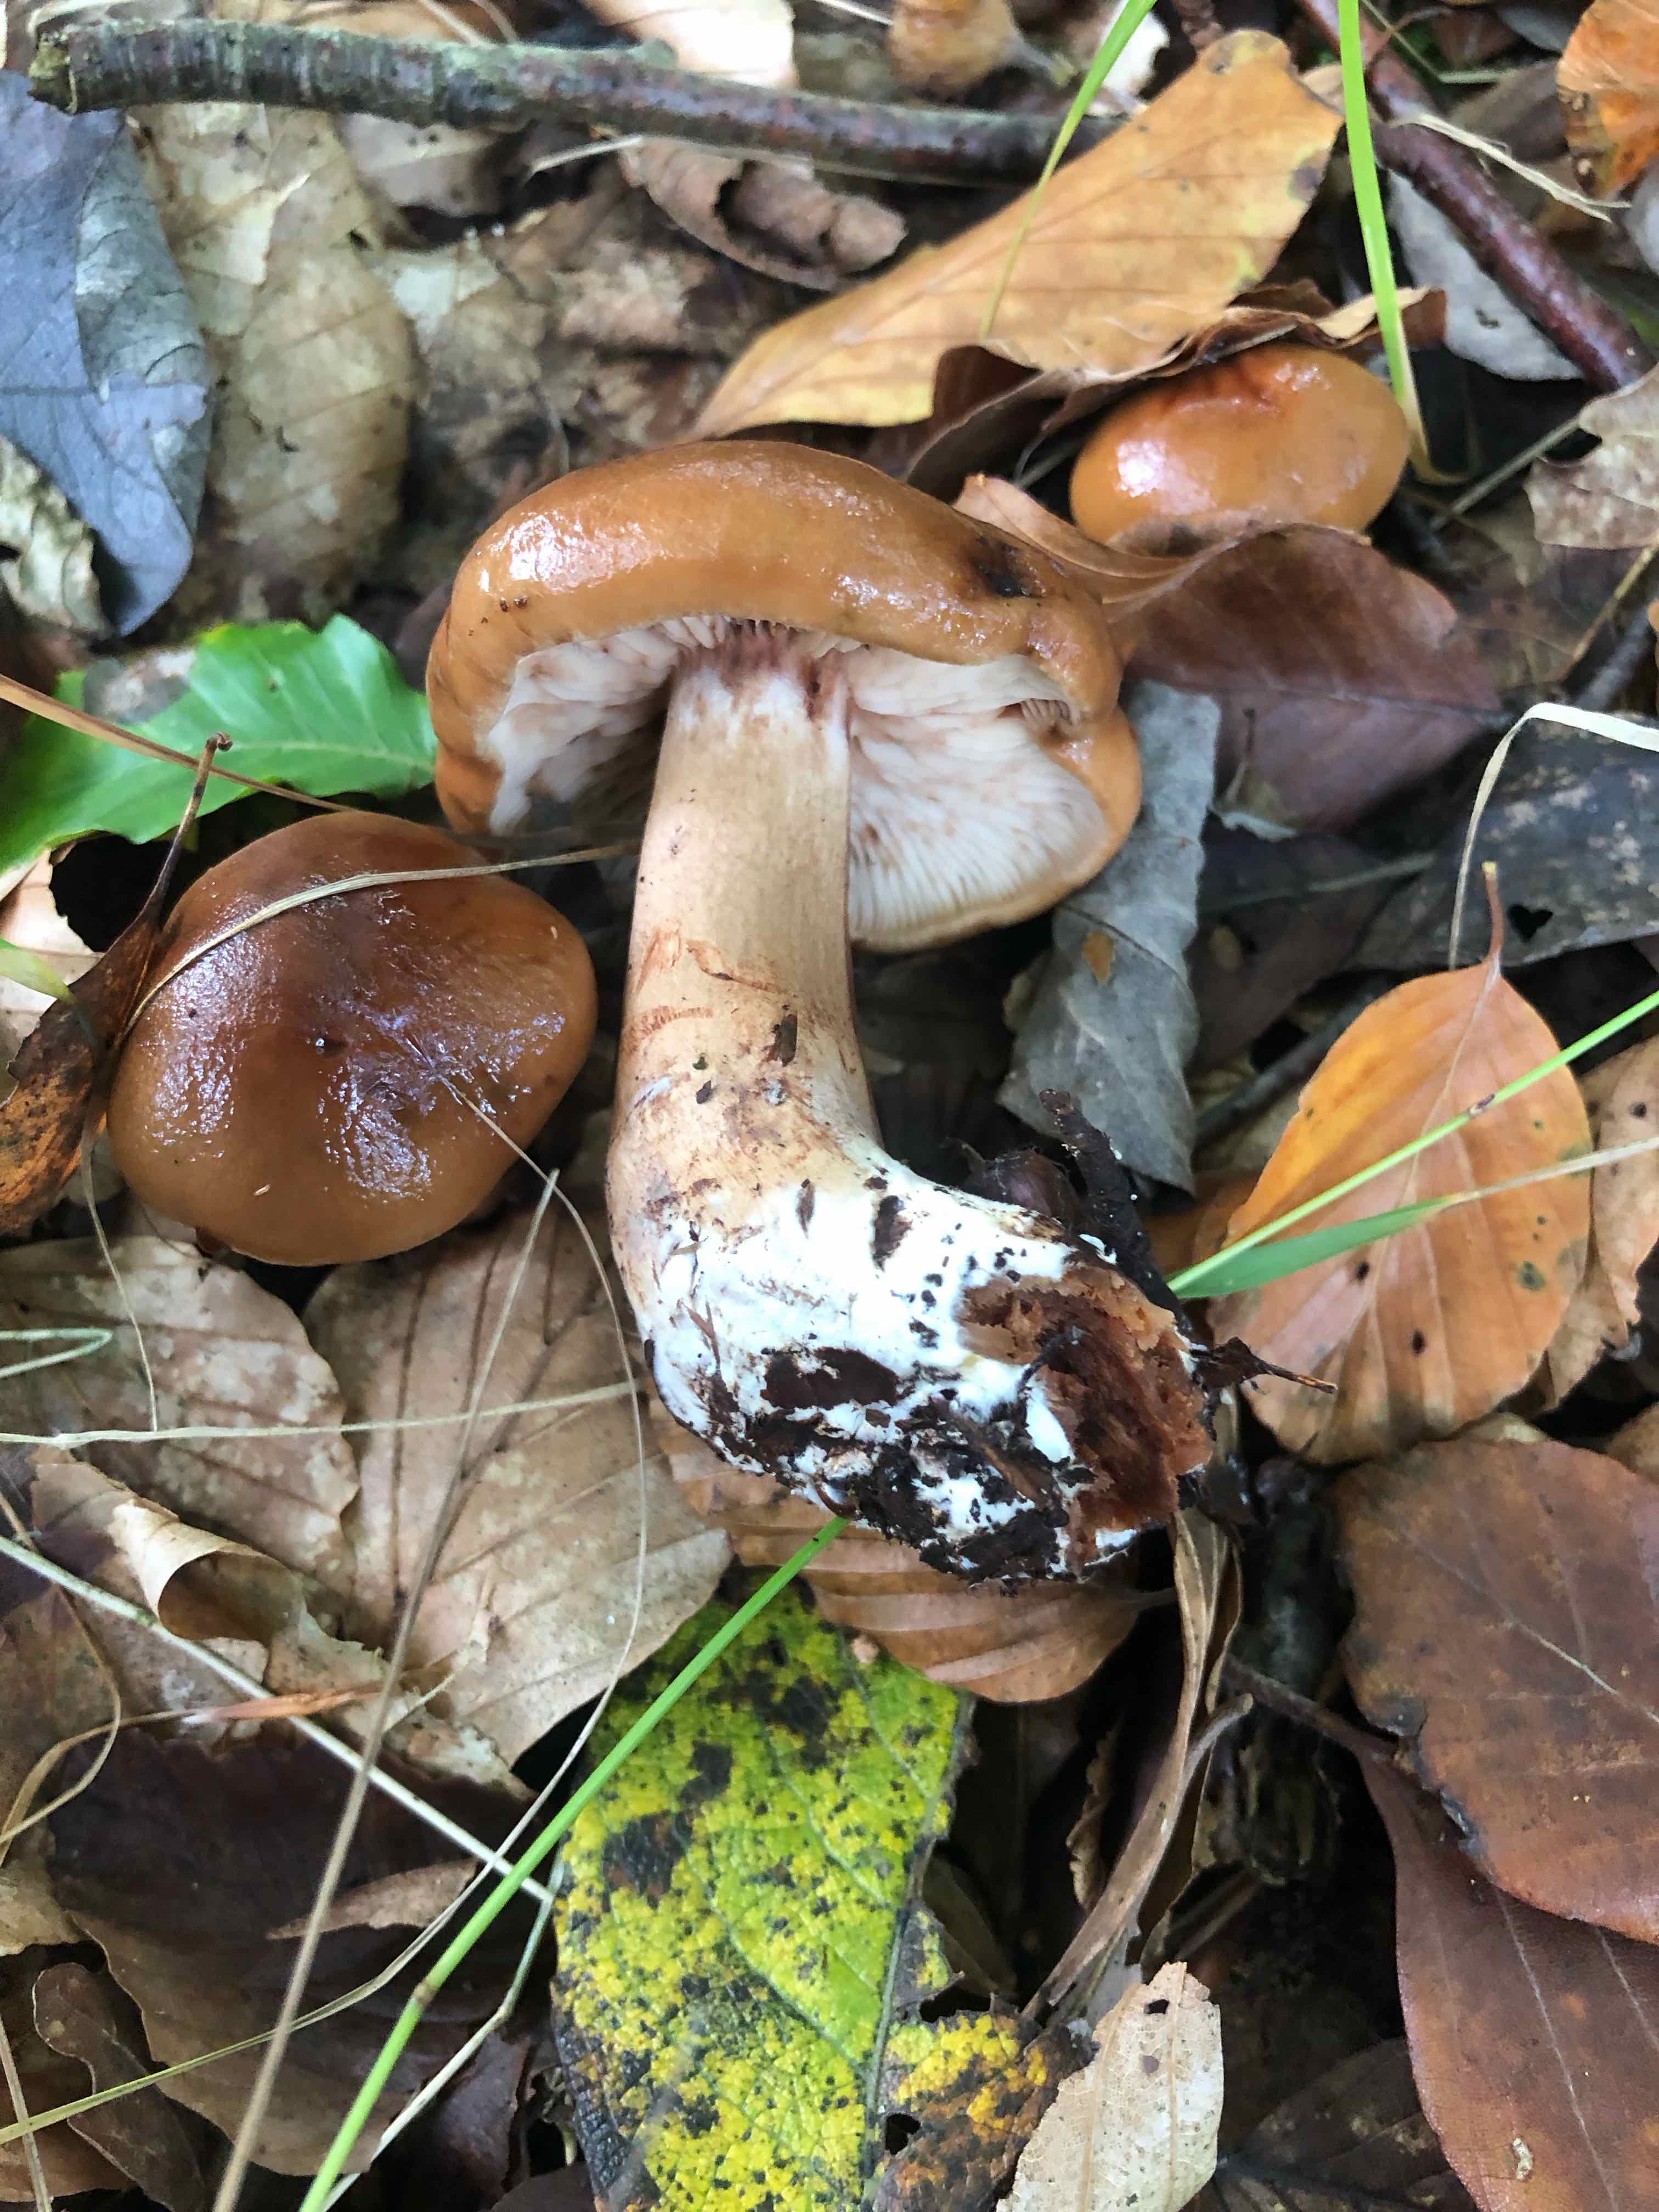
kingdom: Fungi
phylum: Basidiomycota
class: Agaricomycetes
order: Agaricales
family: Tricholomataceae
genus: Tricholoma
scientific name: Tricholoma ustale
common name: sveden ridderhat
